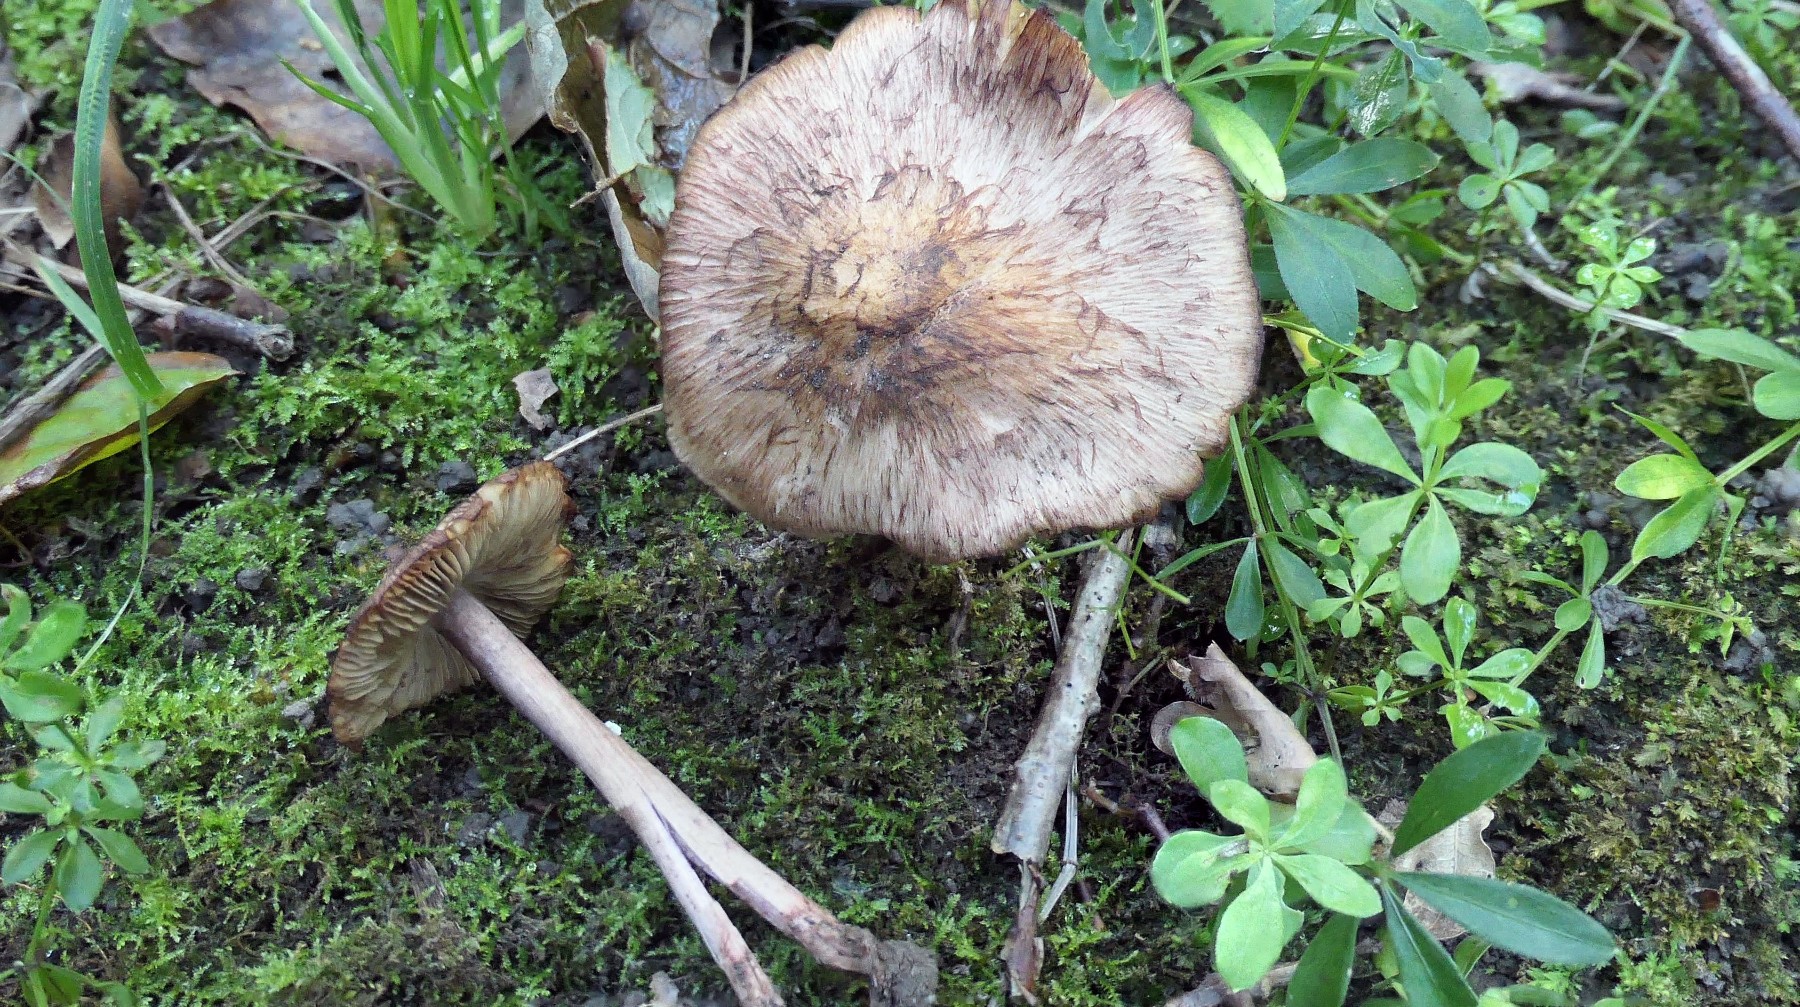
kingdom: Fungi
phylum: Basidiomycota
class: Agaricomycetes
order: Agaricales
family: Inocybaceae
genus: Inosperma
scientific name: Inosperma adaequatum
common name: vinrød trævlhat
